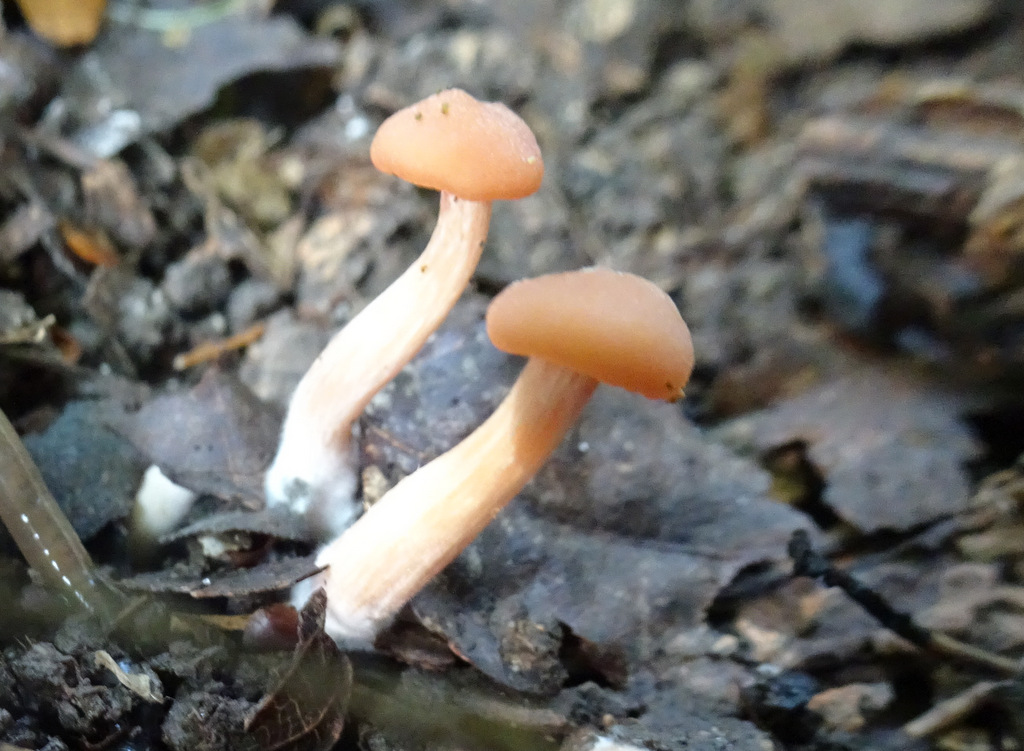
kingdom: Fungi
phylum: Basidiomycota
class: Agaricomycetes
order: Agaricales
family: Hydnangiaceae
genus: Laccaria
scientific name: Laccaria laccata
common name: rød ametysthat
